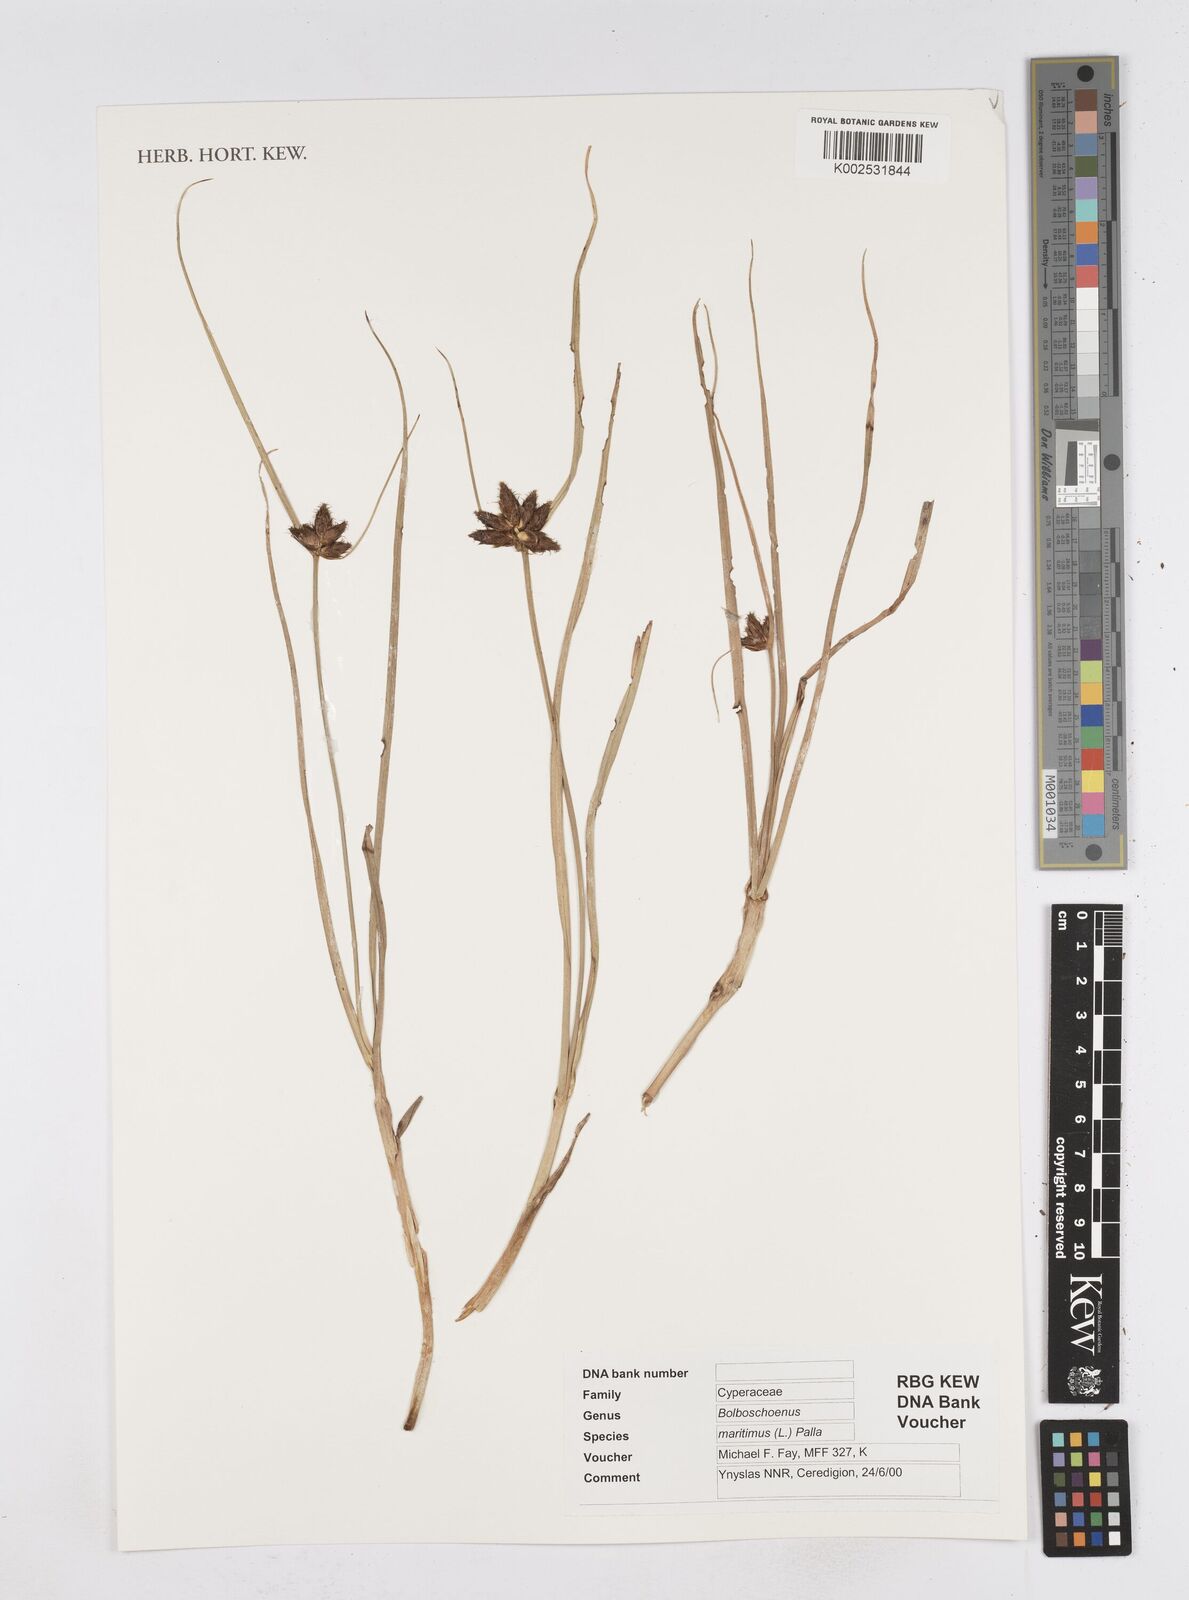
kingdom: Plantae
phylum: Tracheophyta
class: Liliopsida
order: Poales
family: Cyperaceae
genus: Bolboschoenus
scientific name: Bolboschoenus maritimus
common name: Sea club-rush
